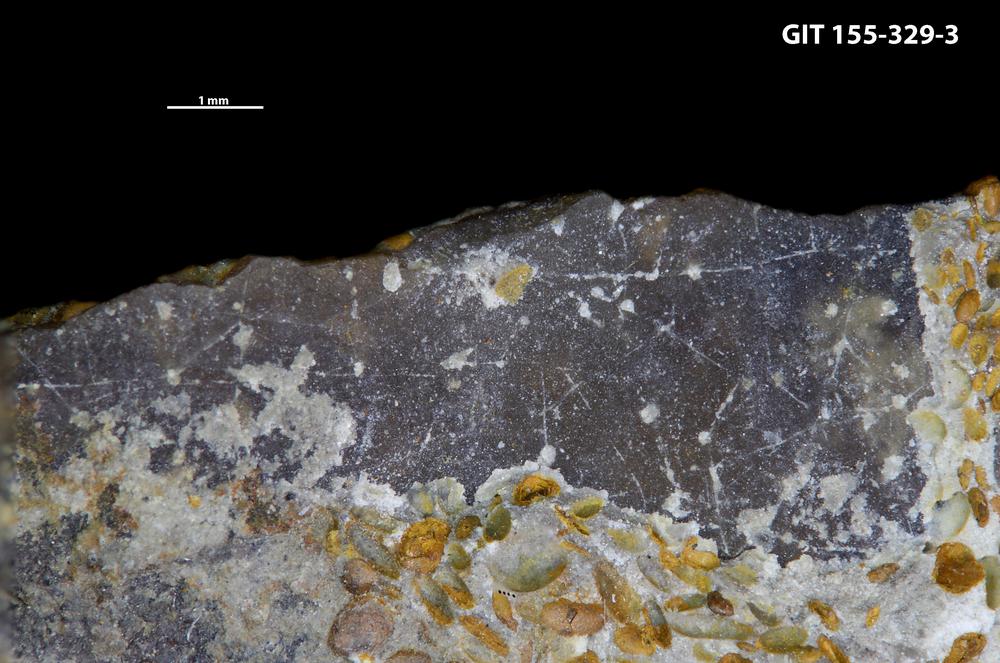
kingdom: Animalia
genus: Pinaceocladichnus
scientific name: Pinaceocladichnus
